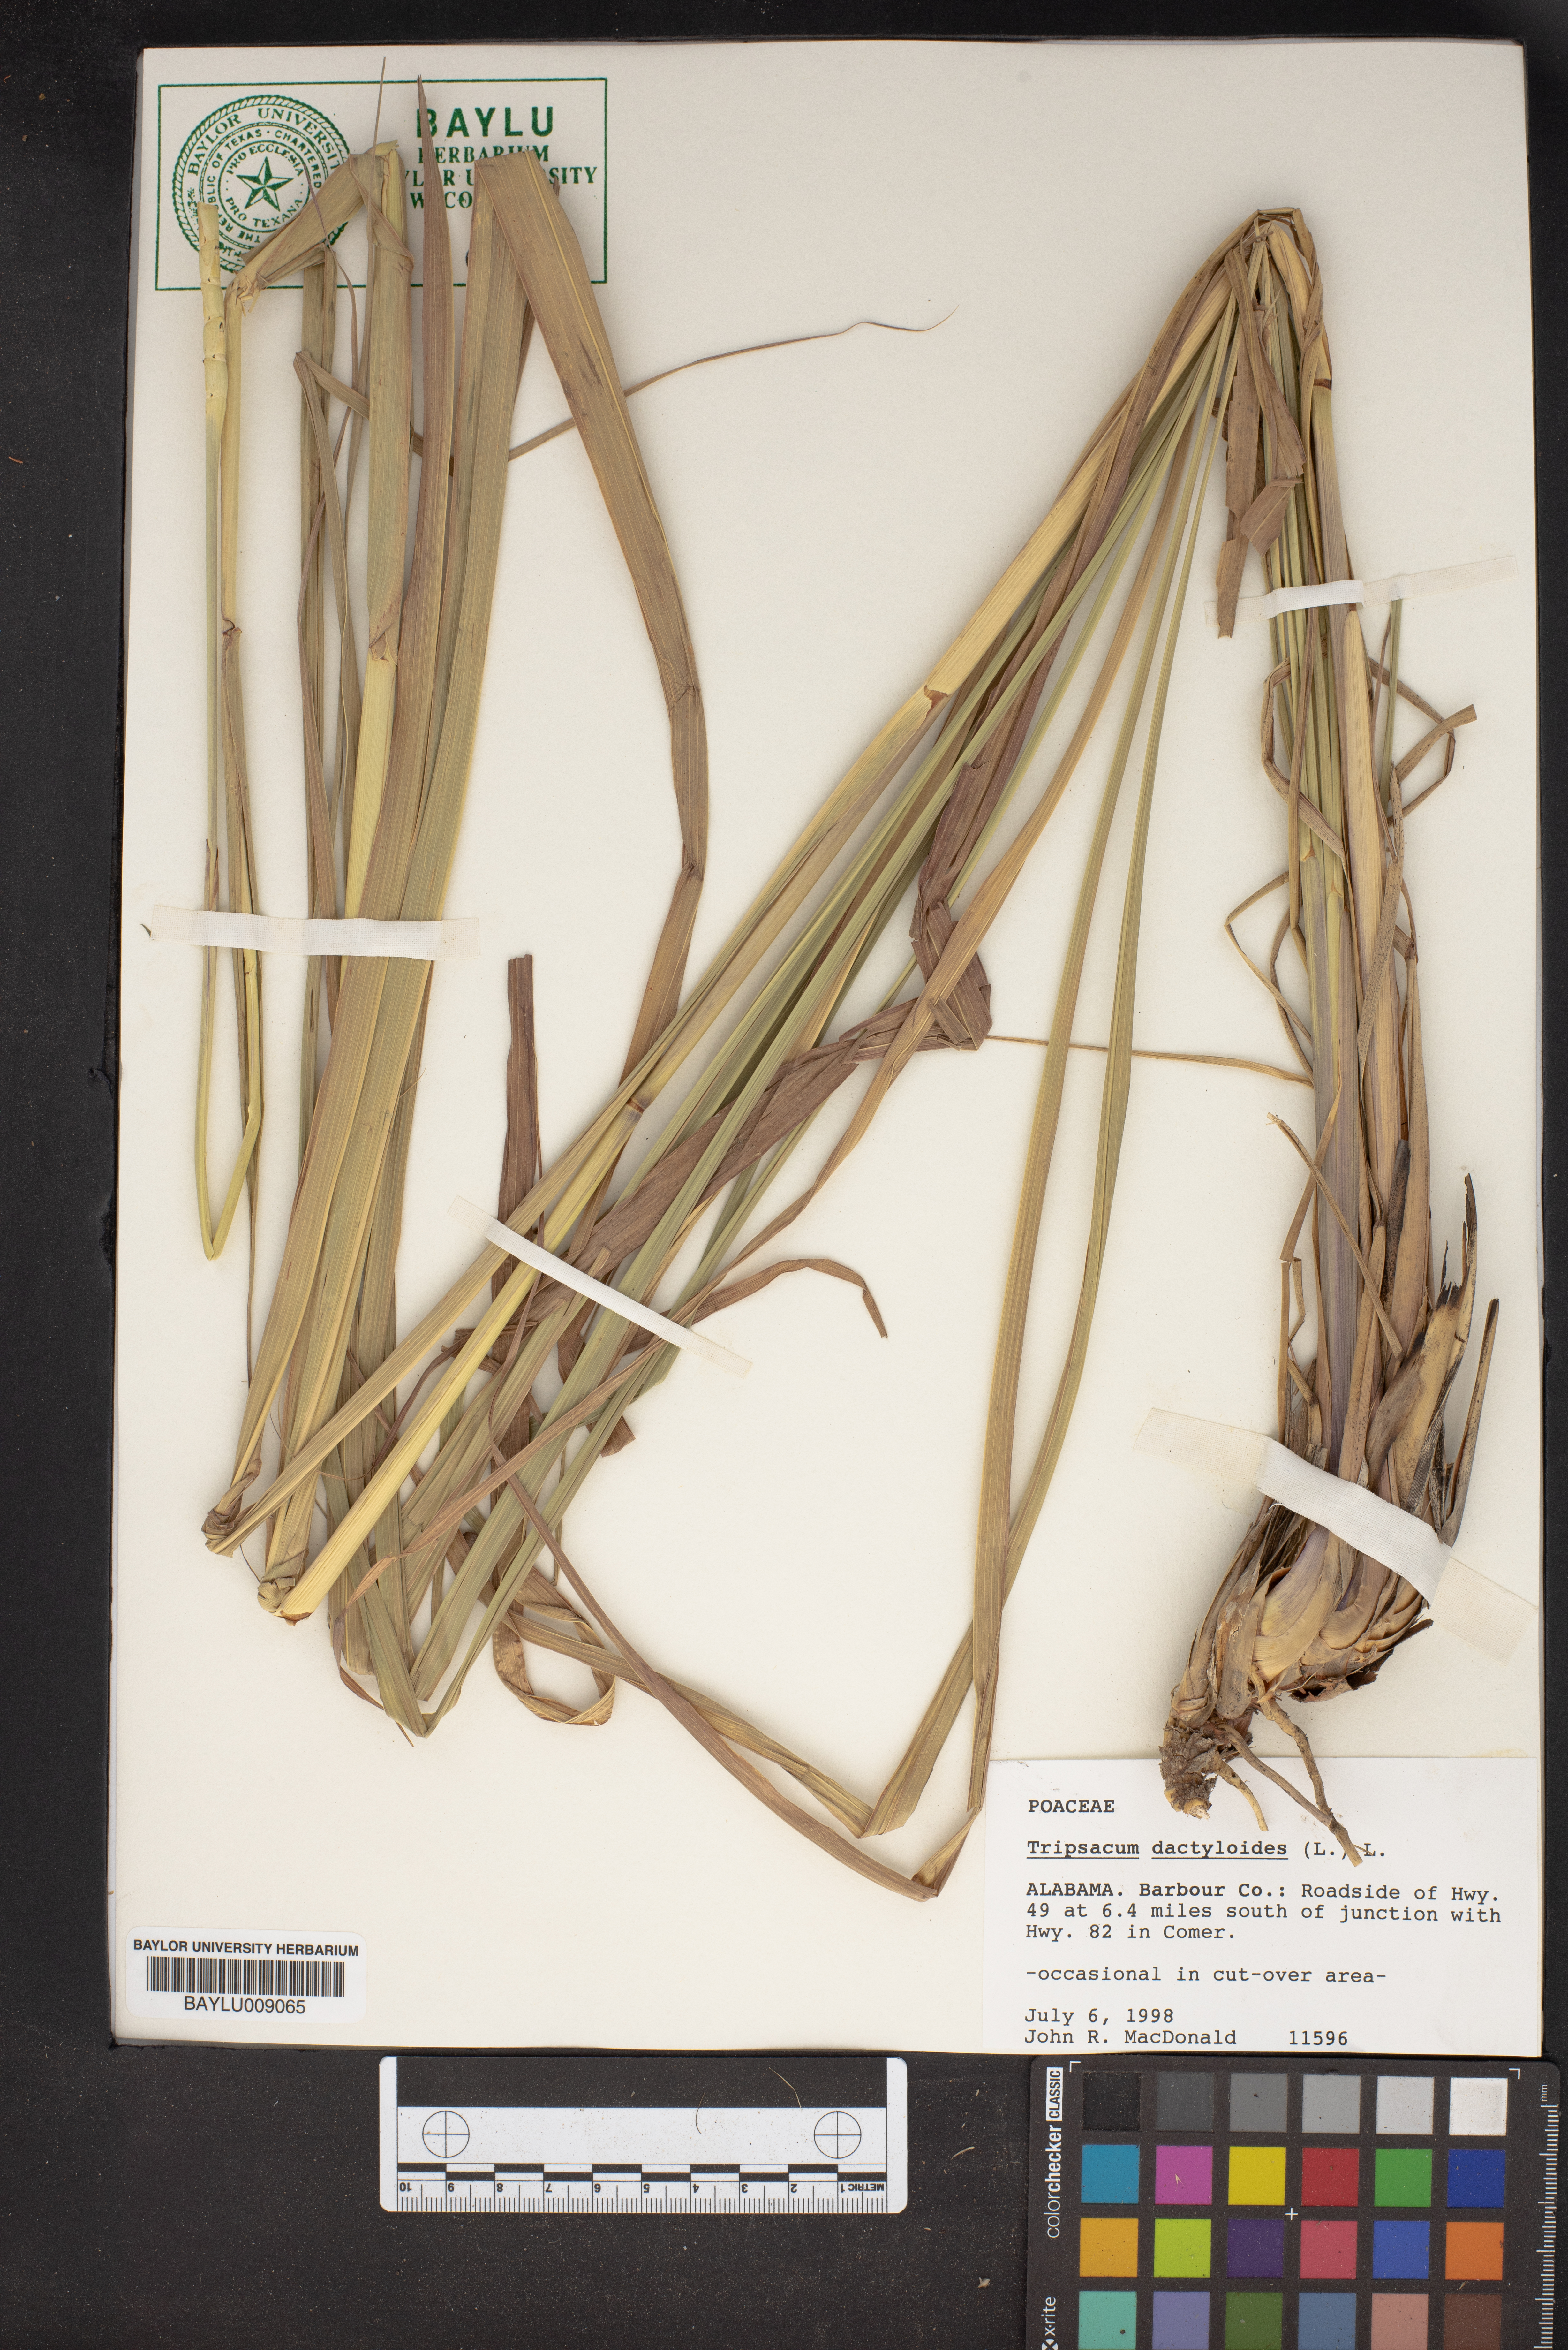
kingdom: Plantae
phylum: Tracheophyta
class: Liliopsida
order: Poales
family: Poaceae
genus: Tripsacum
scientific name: Tripsacum dactyloides
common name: Buffalo-grass
